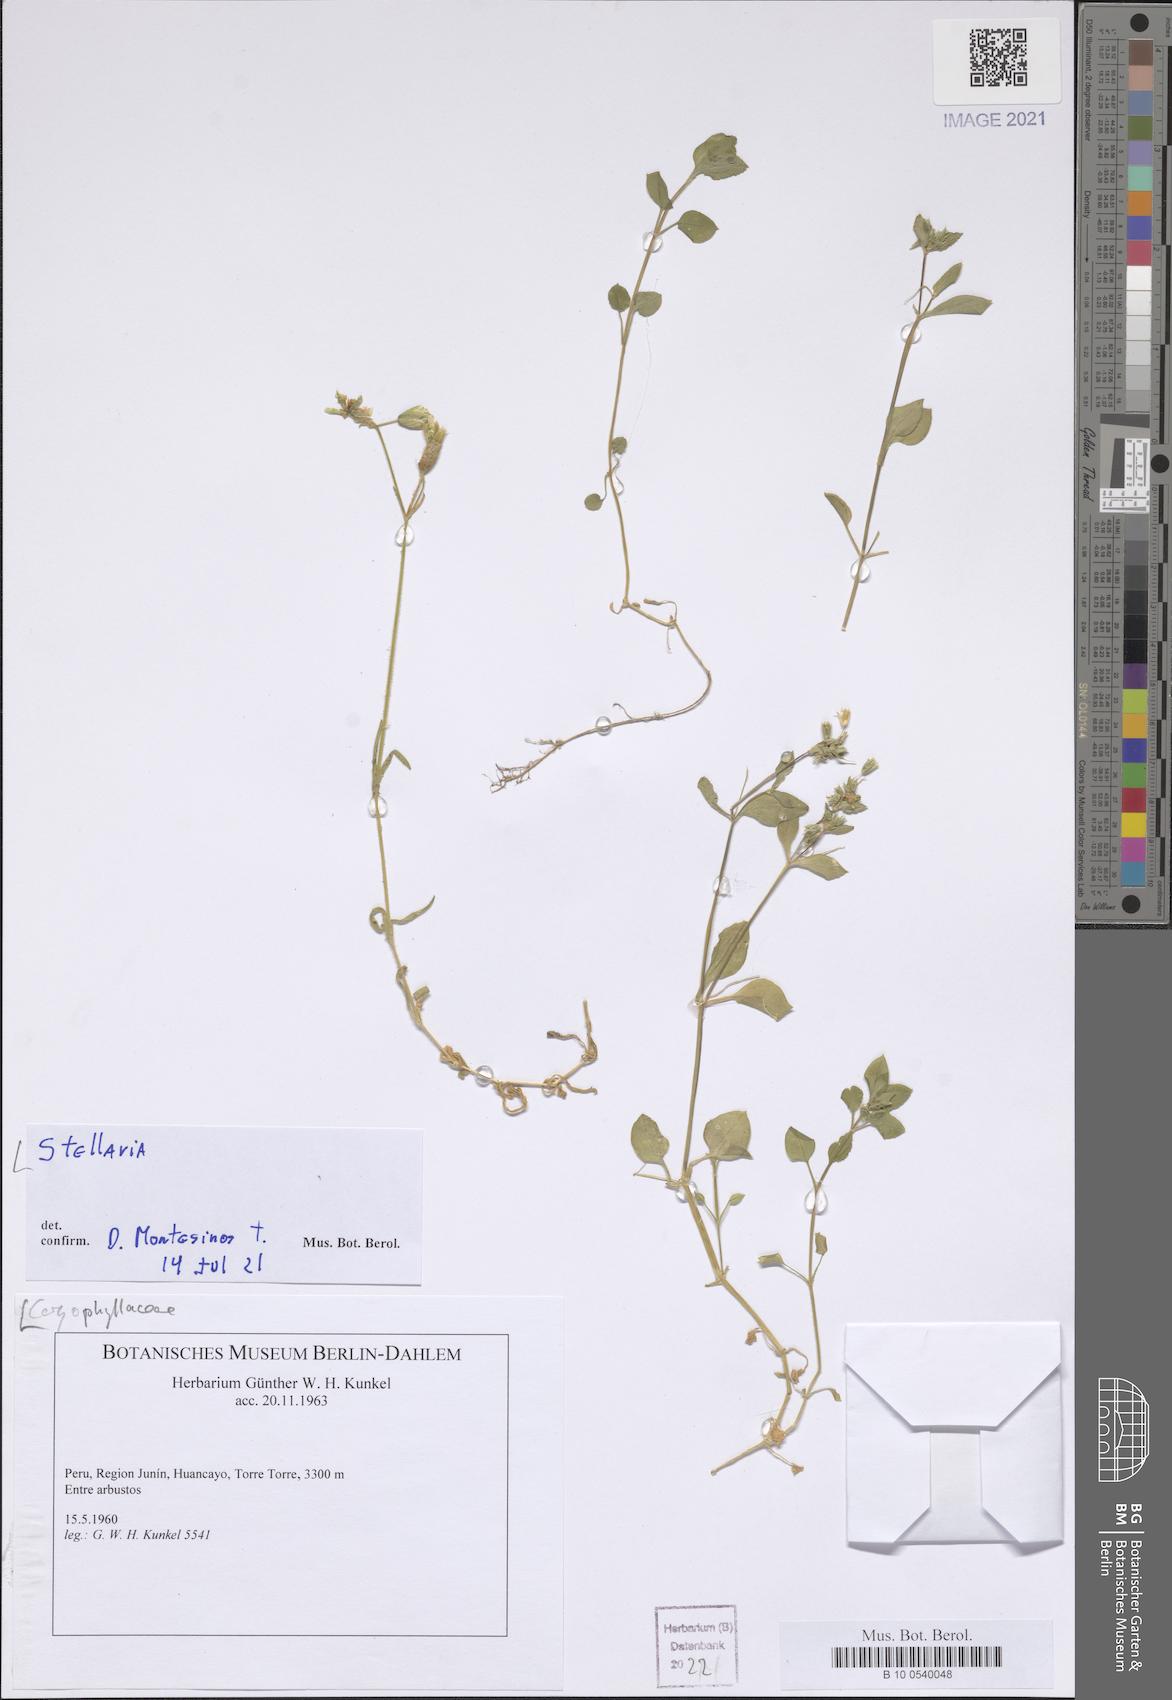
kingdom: Plantae
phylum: Tracheophyta
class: Magnoliopsida
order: Caryophyllales
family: Caryophyllaceae
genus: Stellaria
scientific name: Stellaria
